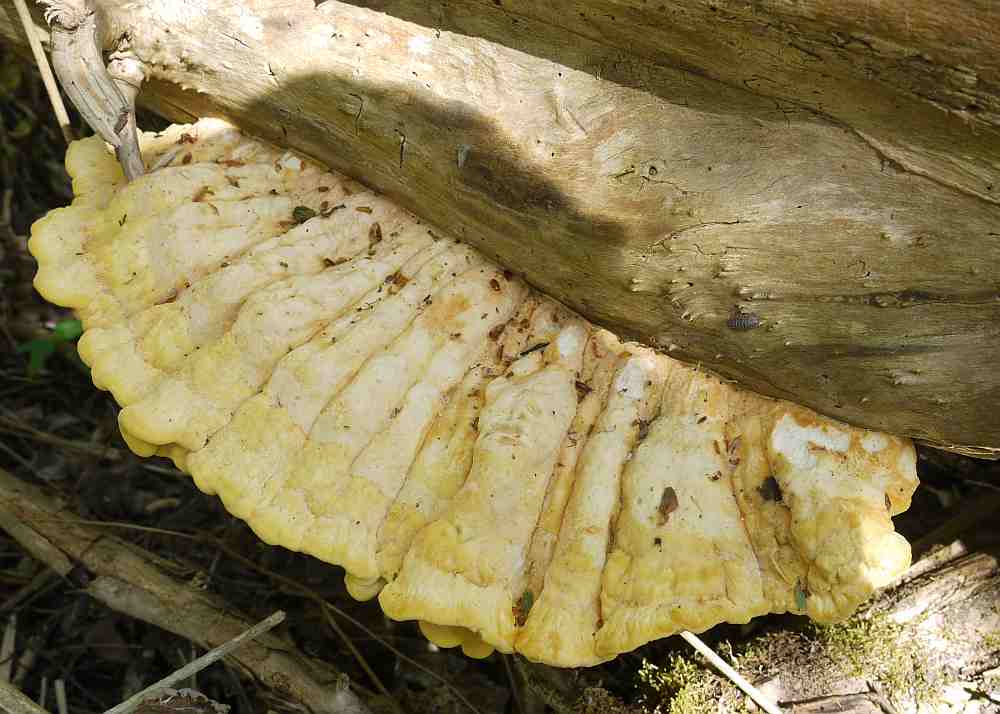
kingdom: Fungi
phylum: Basidiomycota
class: Agaricomycetes
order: Polyporales
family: Laetiporaceae
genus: Laetiporus
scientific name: Laetiporus sulphureus
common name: svovlporesvamp
